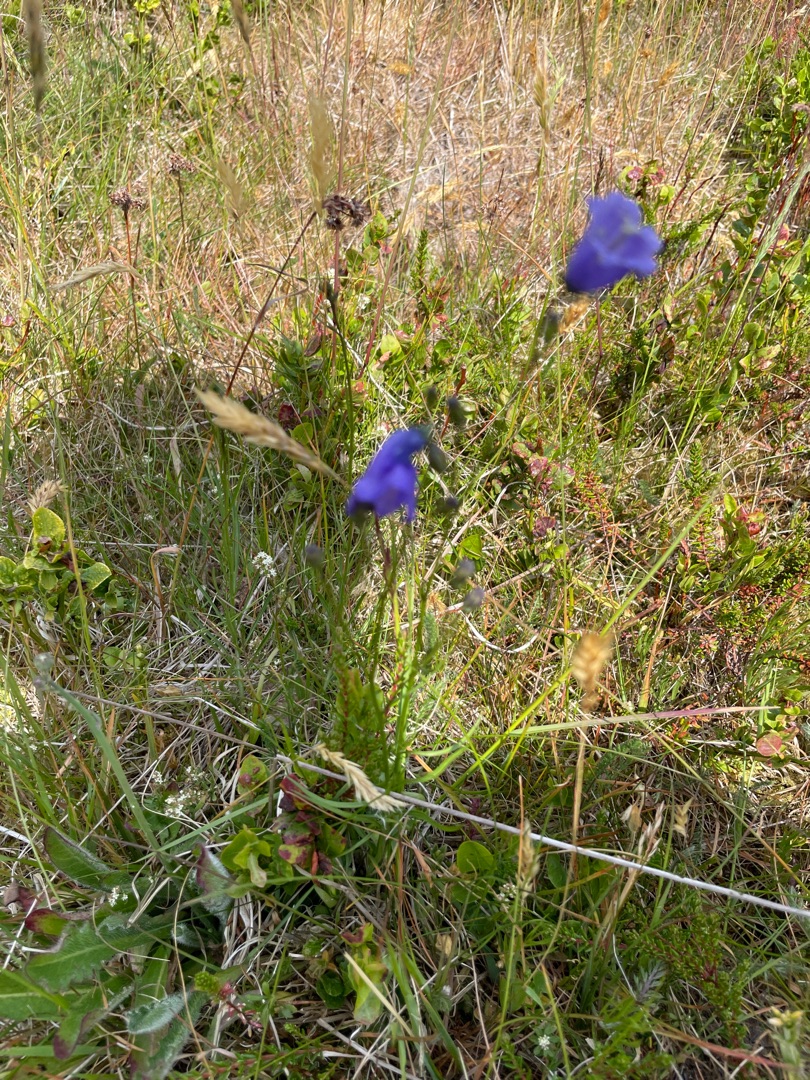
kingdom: Plantae
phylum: Tracheophyta
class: Magnoliopsida
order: Asterales
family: Campanulaceae
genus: Campanula
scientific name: Campanula rotundifolia
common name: Liden klokke
